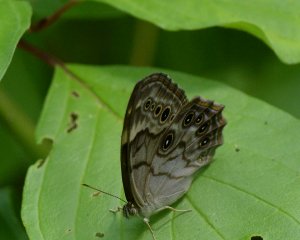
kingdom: Animalia
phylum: Arthropoda
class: Insecta
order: Lepidoptera
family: Nymphalidae
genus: Lethe
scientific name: Lethe anthedon
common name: Northern Pearly-Eye
